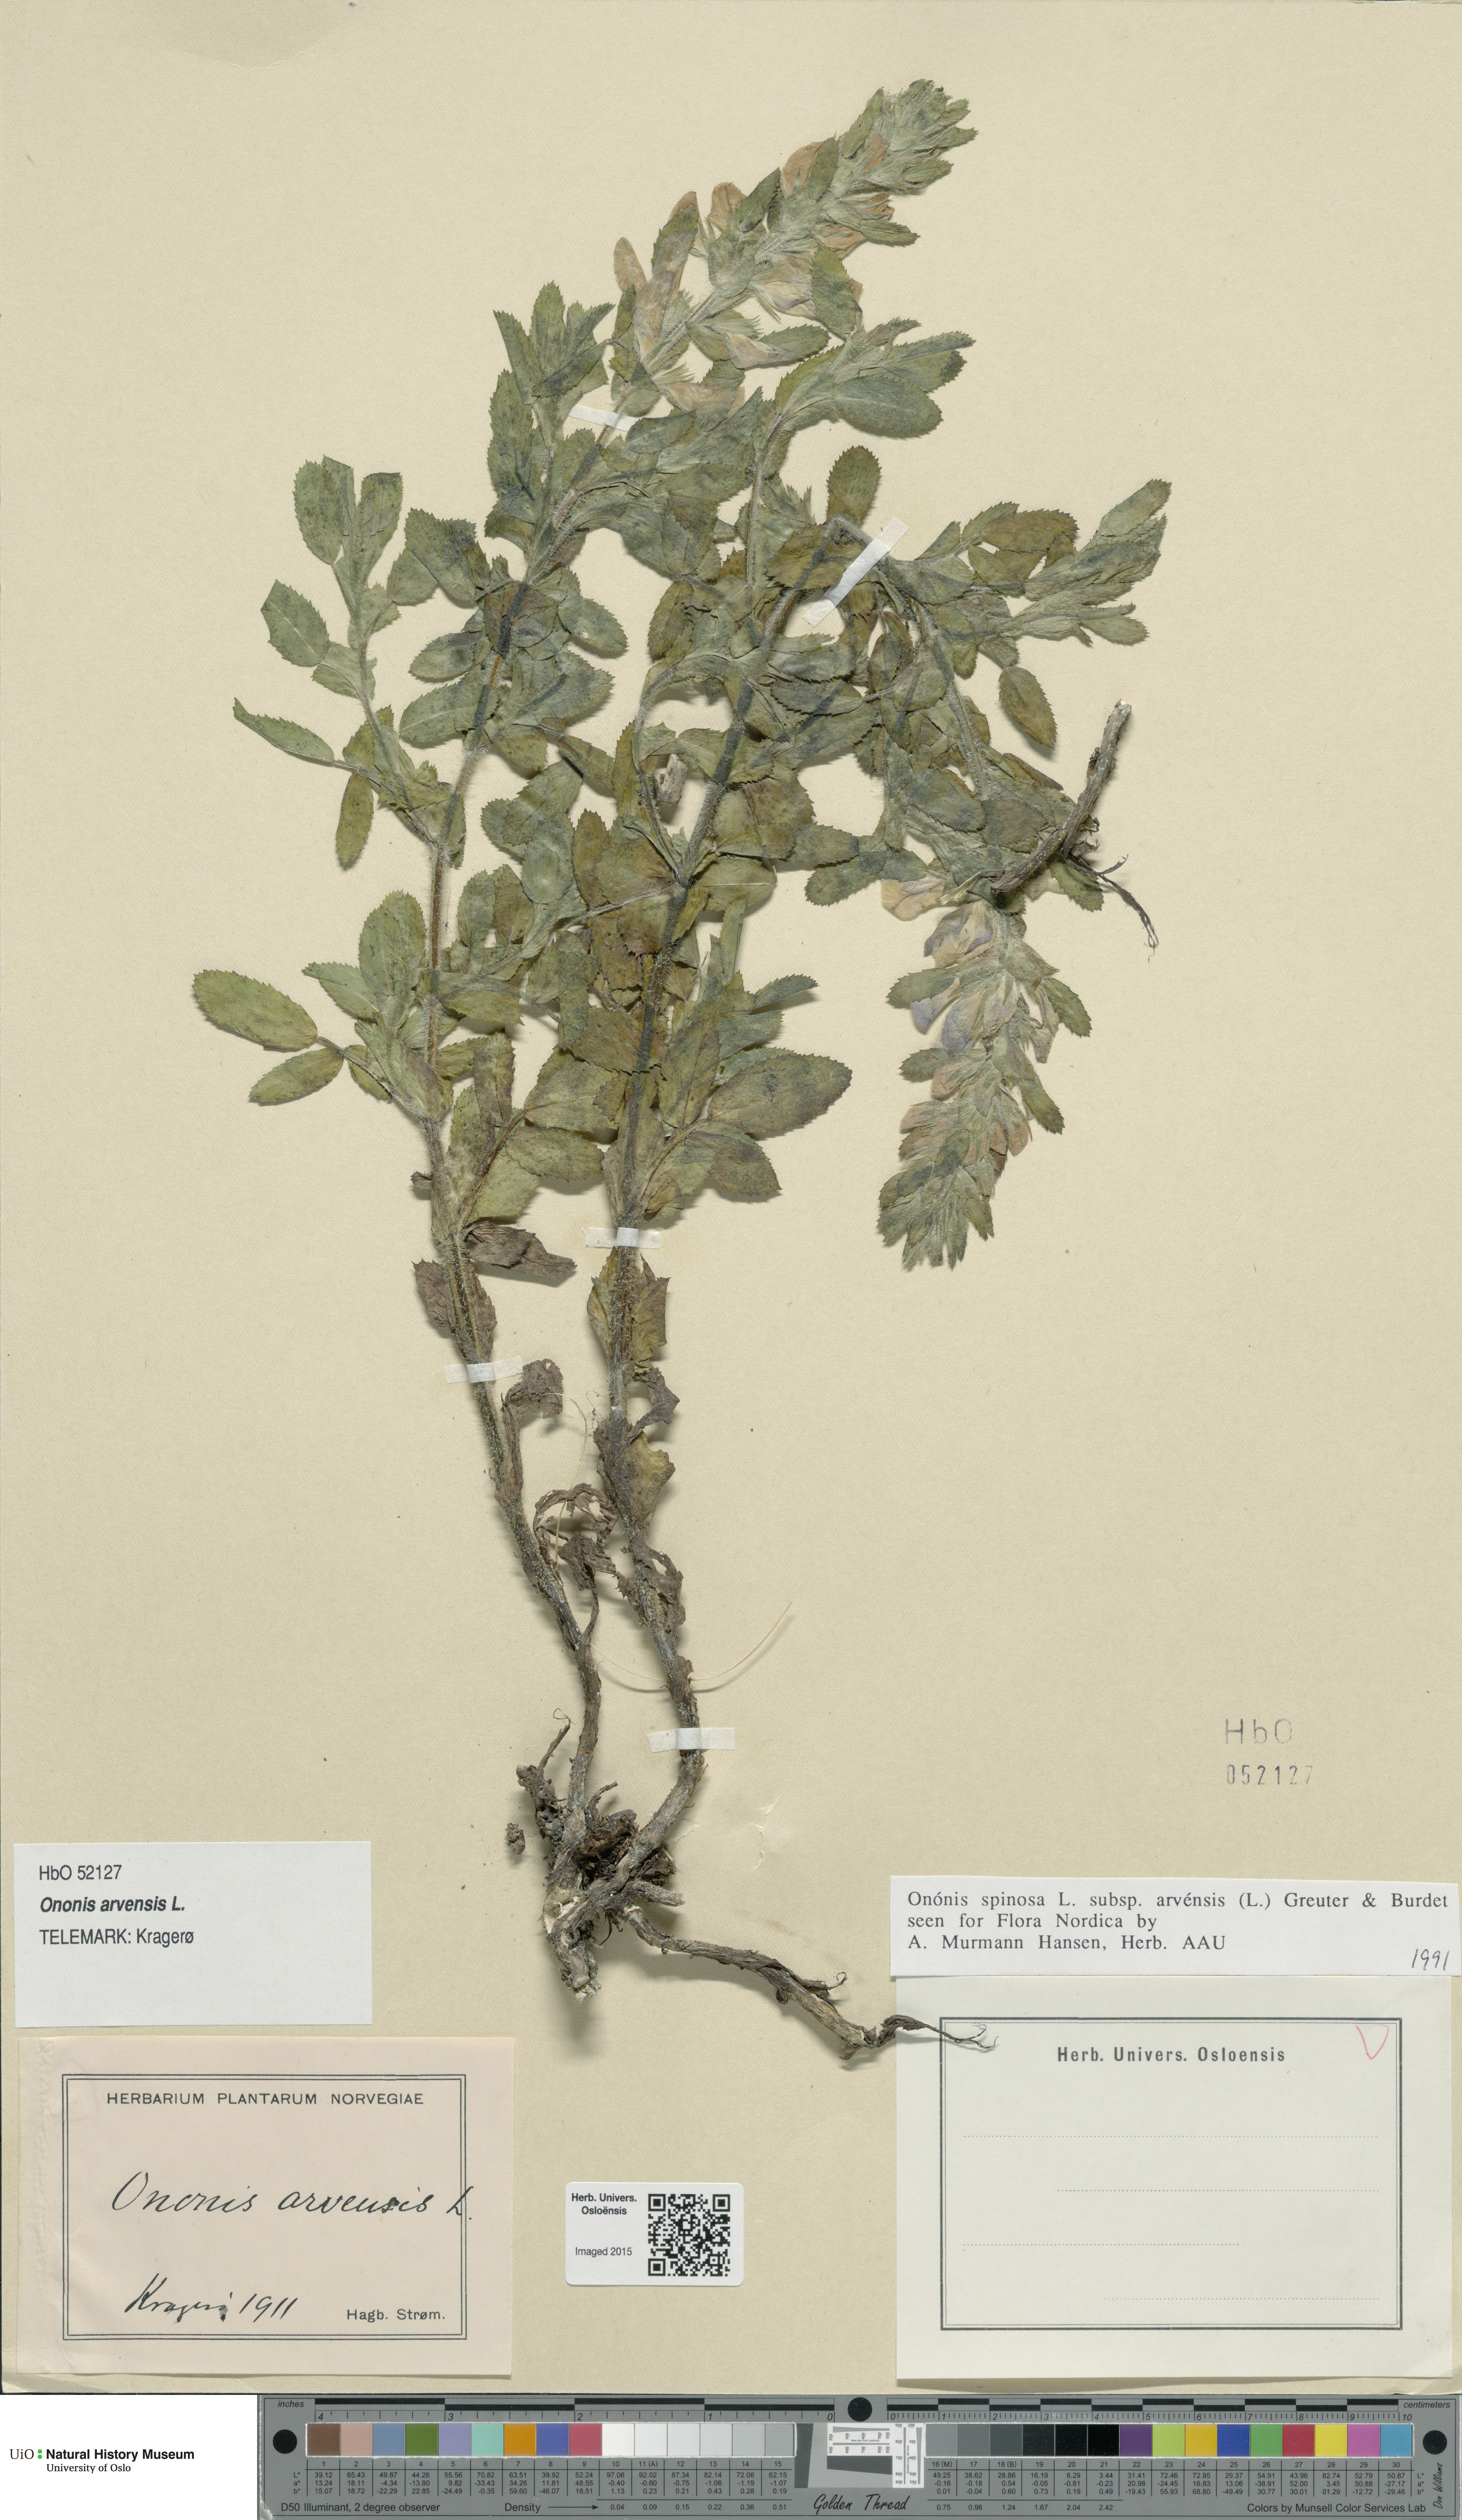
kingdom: Plantae
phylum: Tracheophyta
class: Magnoliopsida
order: Fabales
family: Fabaceae
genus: Ononis
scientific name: Ononis arvensis
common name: Field restharrow
